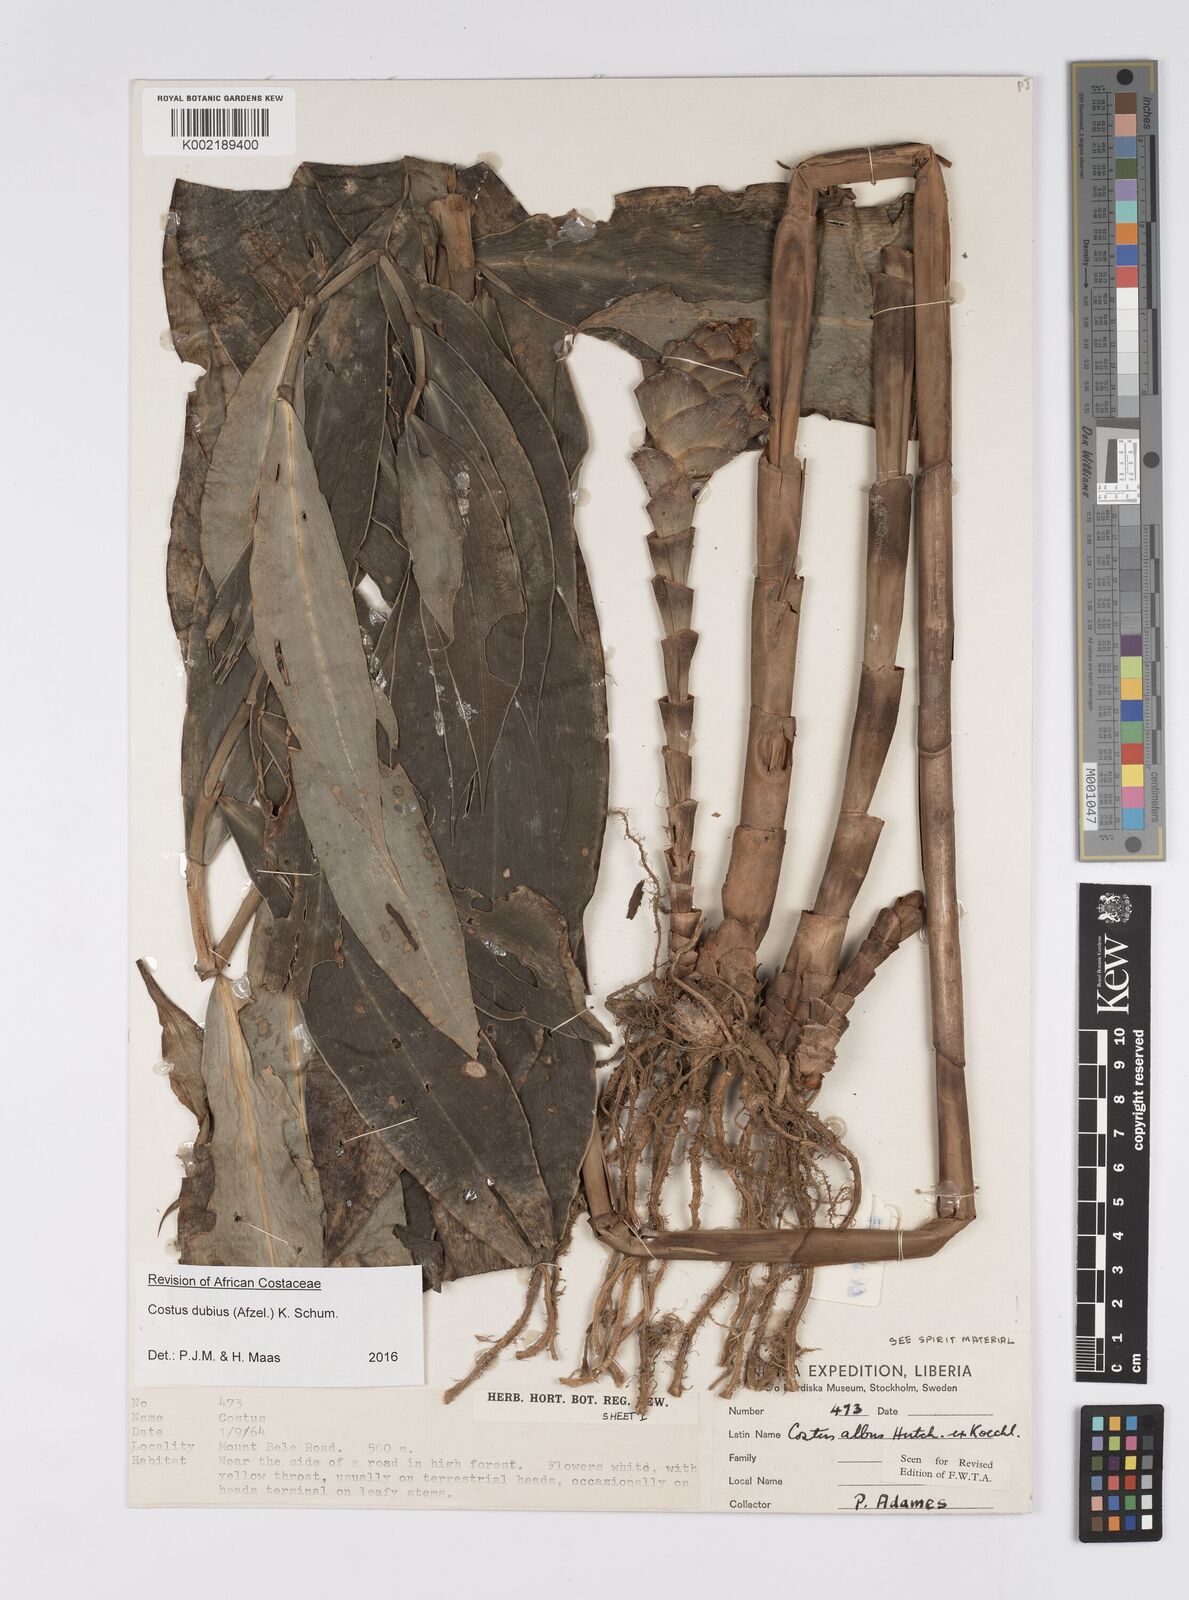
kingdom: Plantae
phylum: Tracheophyta
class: Liliopsida
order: Zingiberales
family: Costaceae
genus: Costus
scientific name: Costus dubius
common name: Costus
